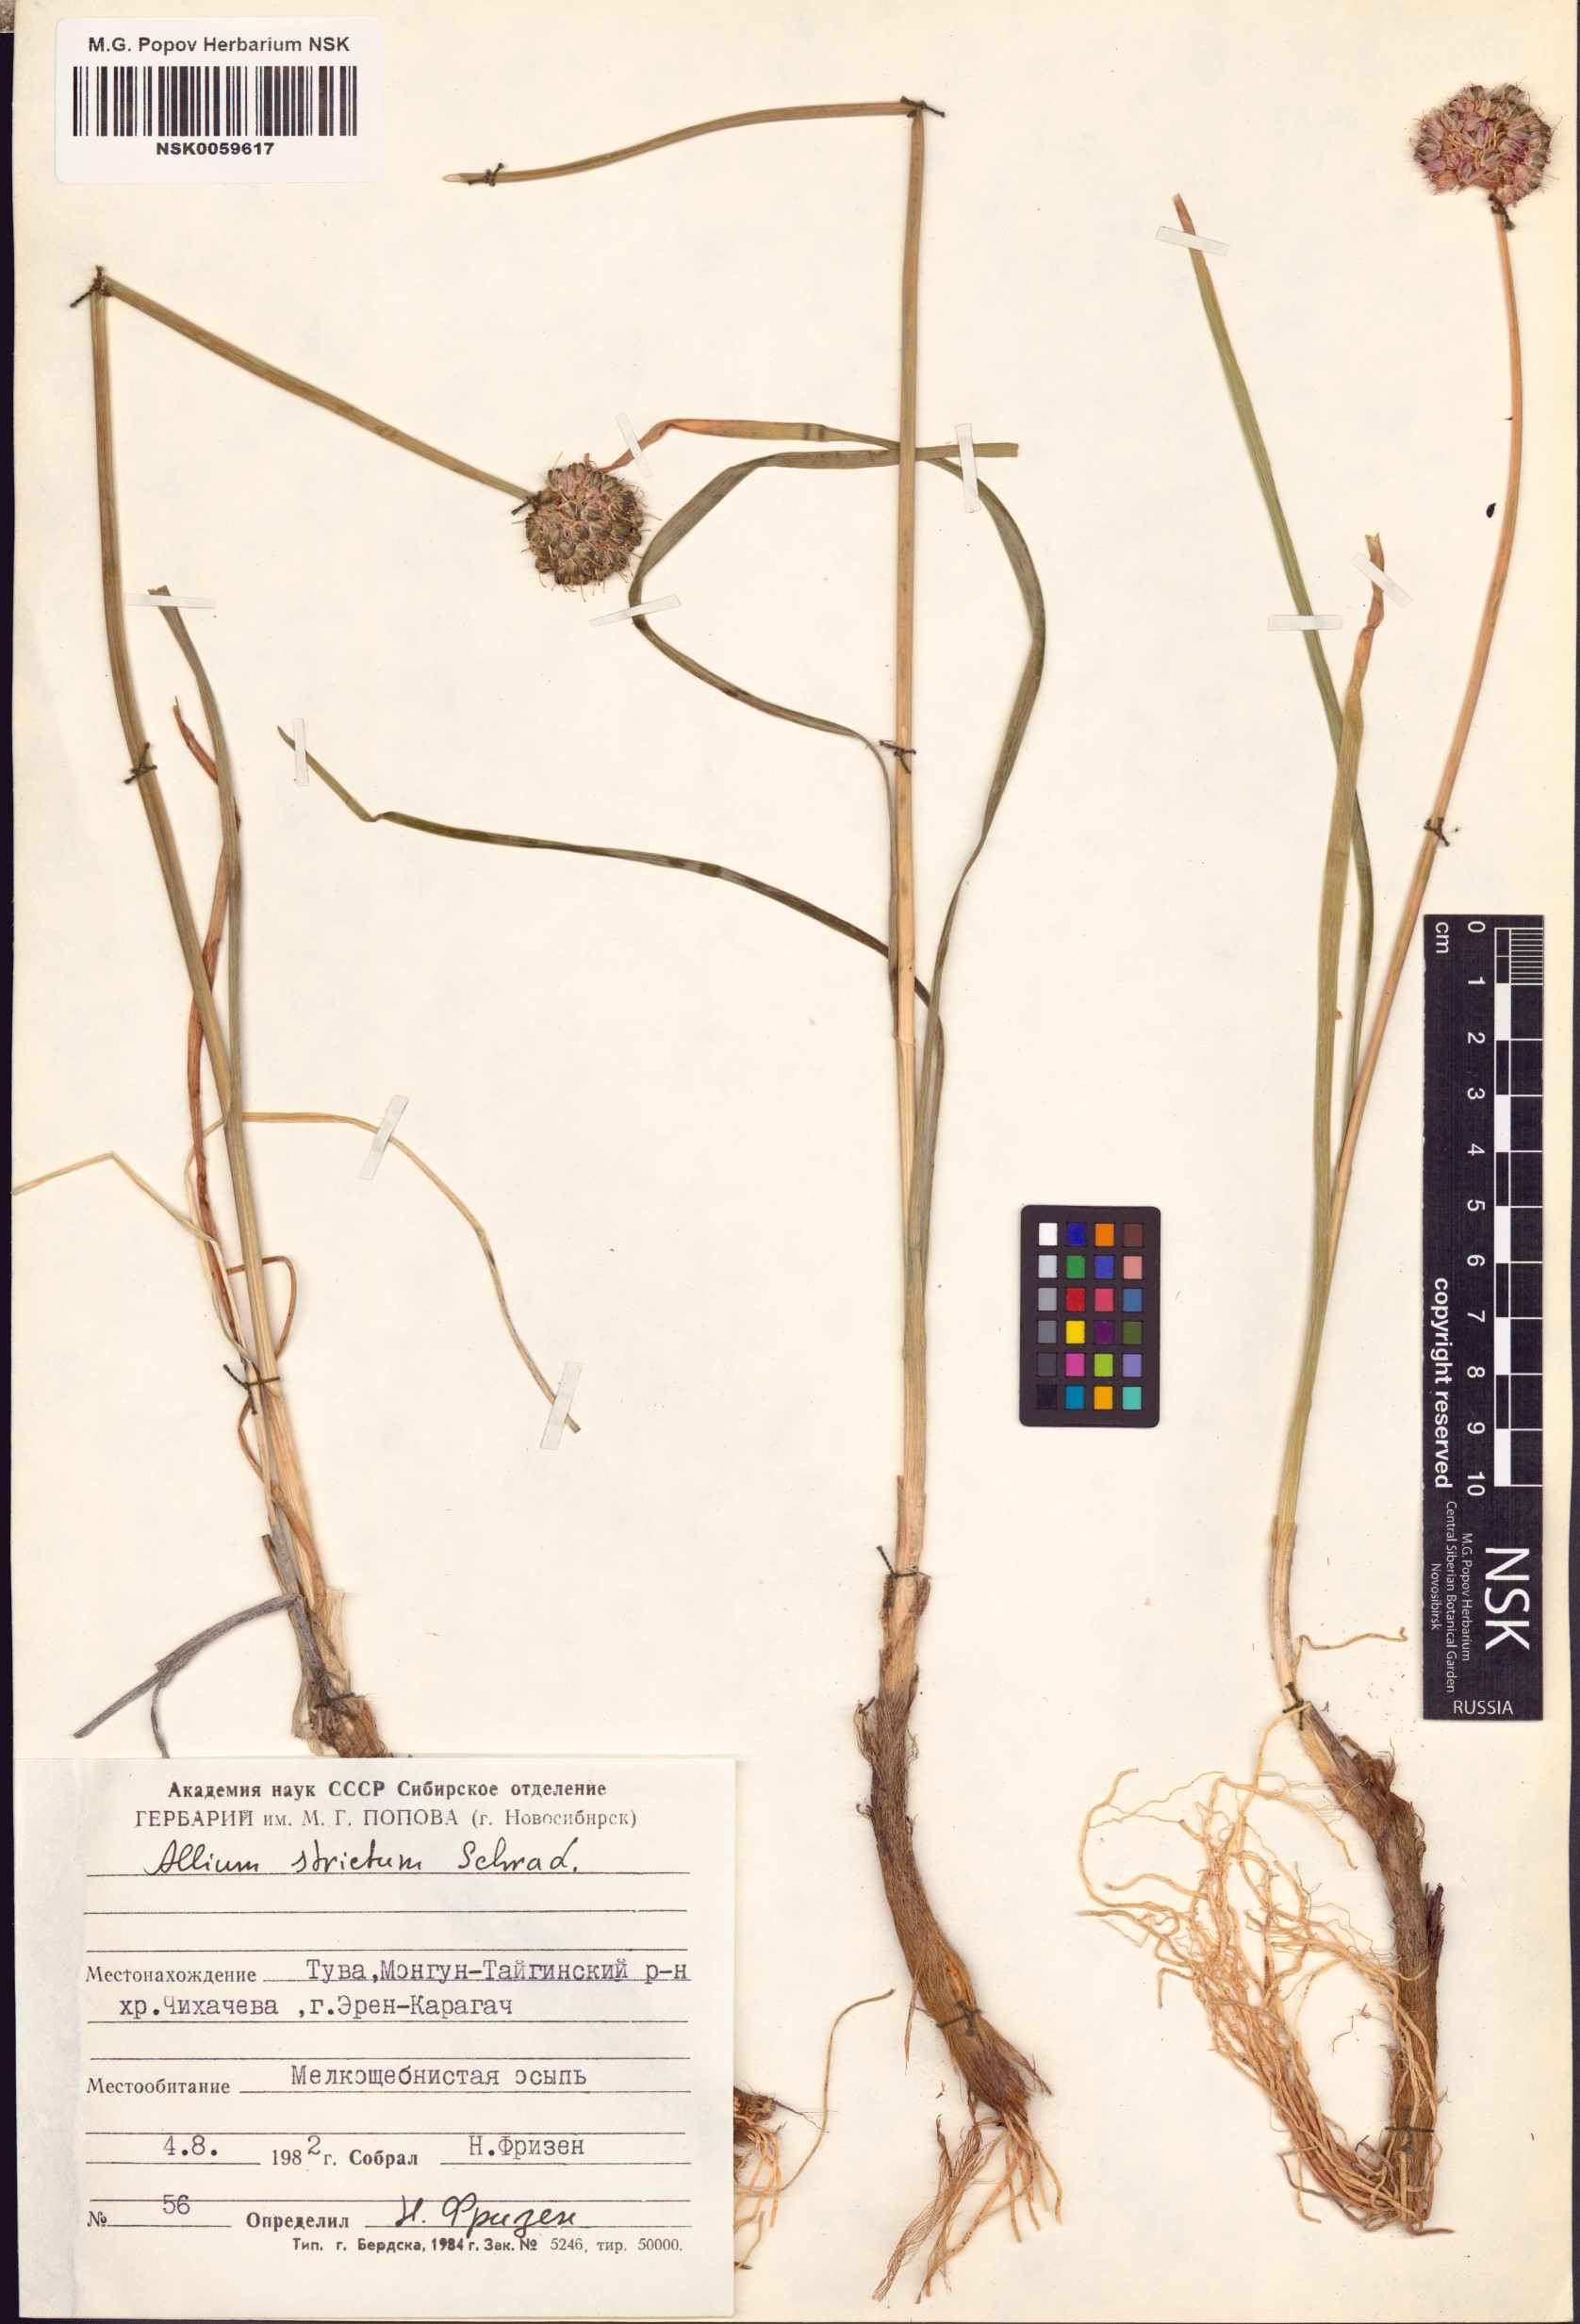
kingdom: Plantae
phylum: Tracheophyta
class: Liliopsida
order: Asparagales
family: Amaryllidaceae
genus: Allium
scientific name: Allium strictum
